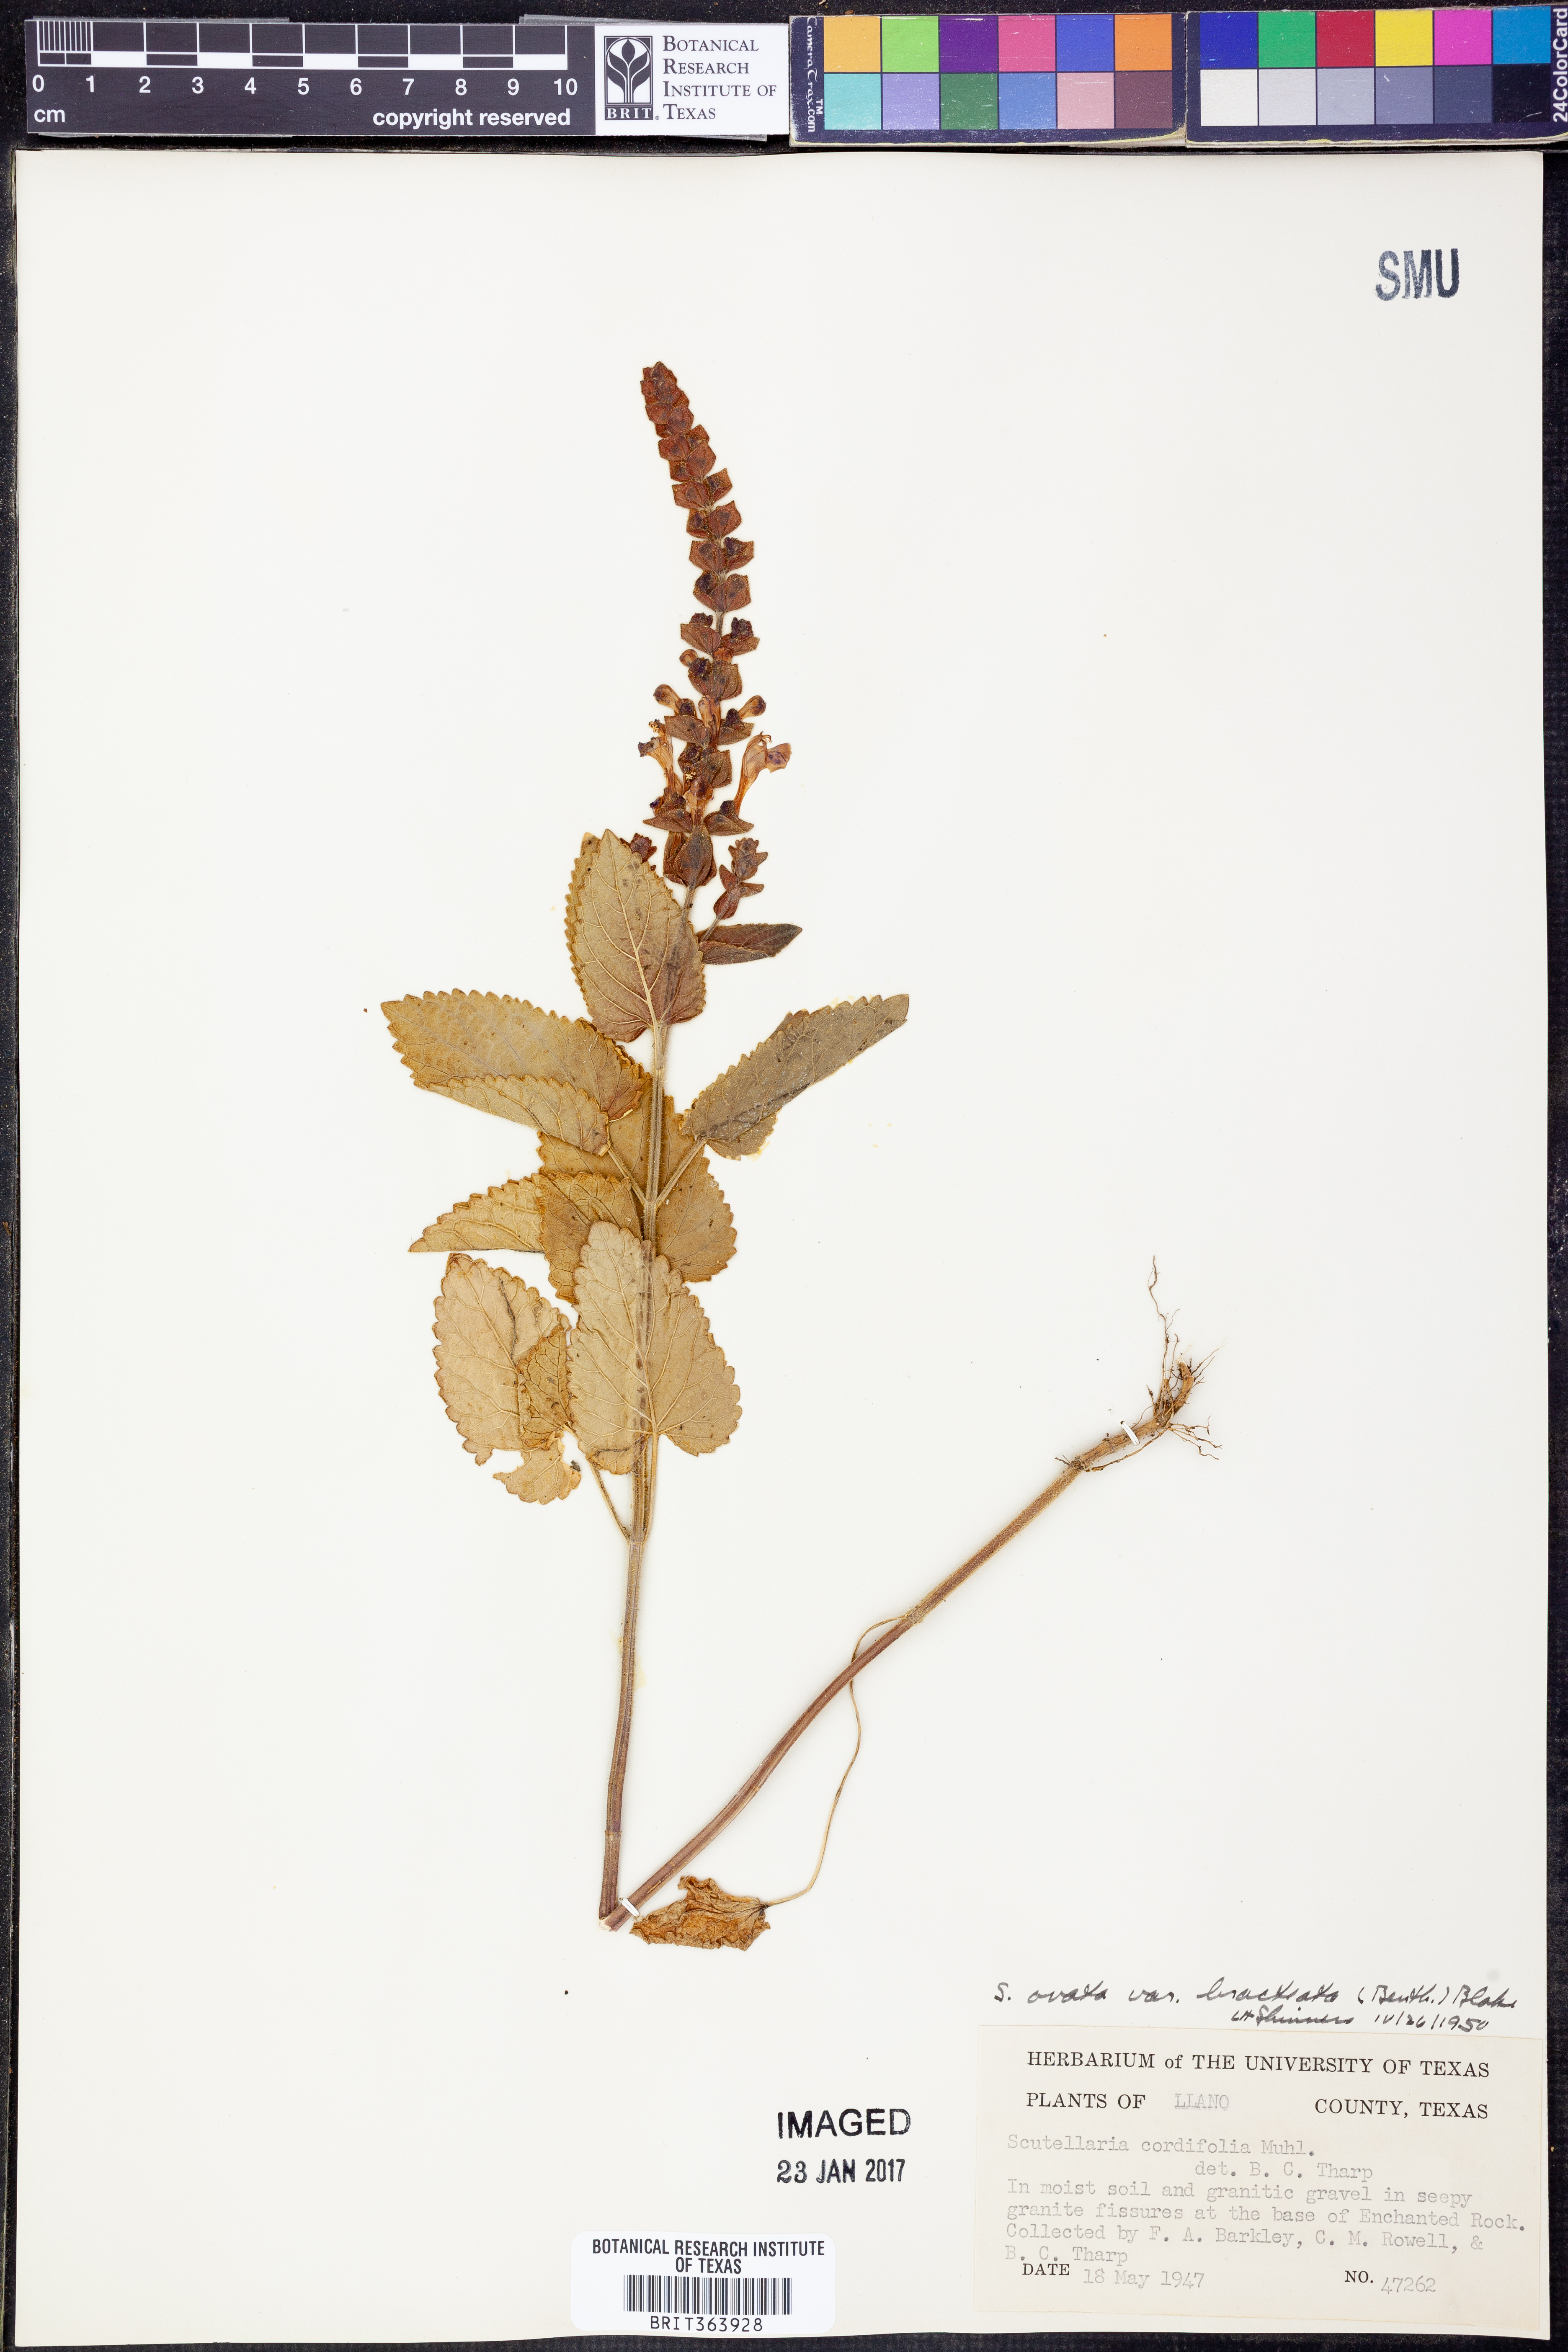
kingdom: Plantae
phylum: Tracheophyta
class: Magnoliopsida
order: Lamiales
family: Lamiaceae
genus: Scutellaria
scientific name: Scutellaria ovata
